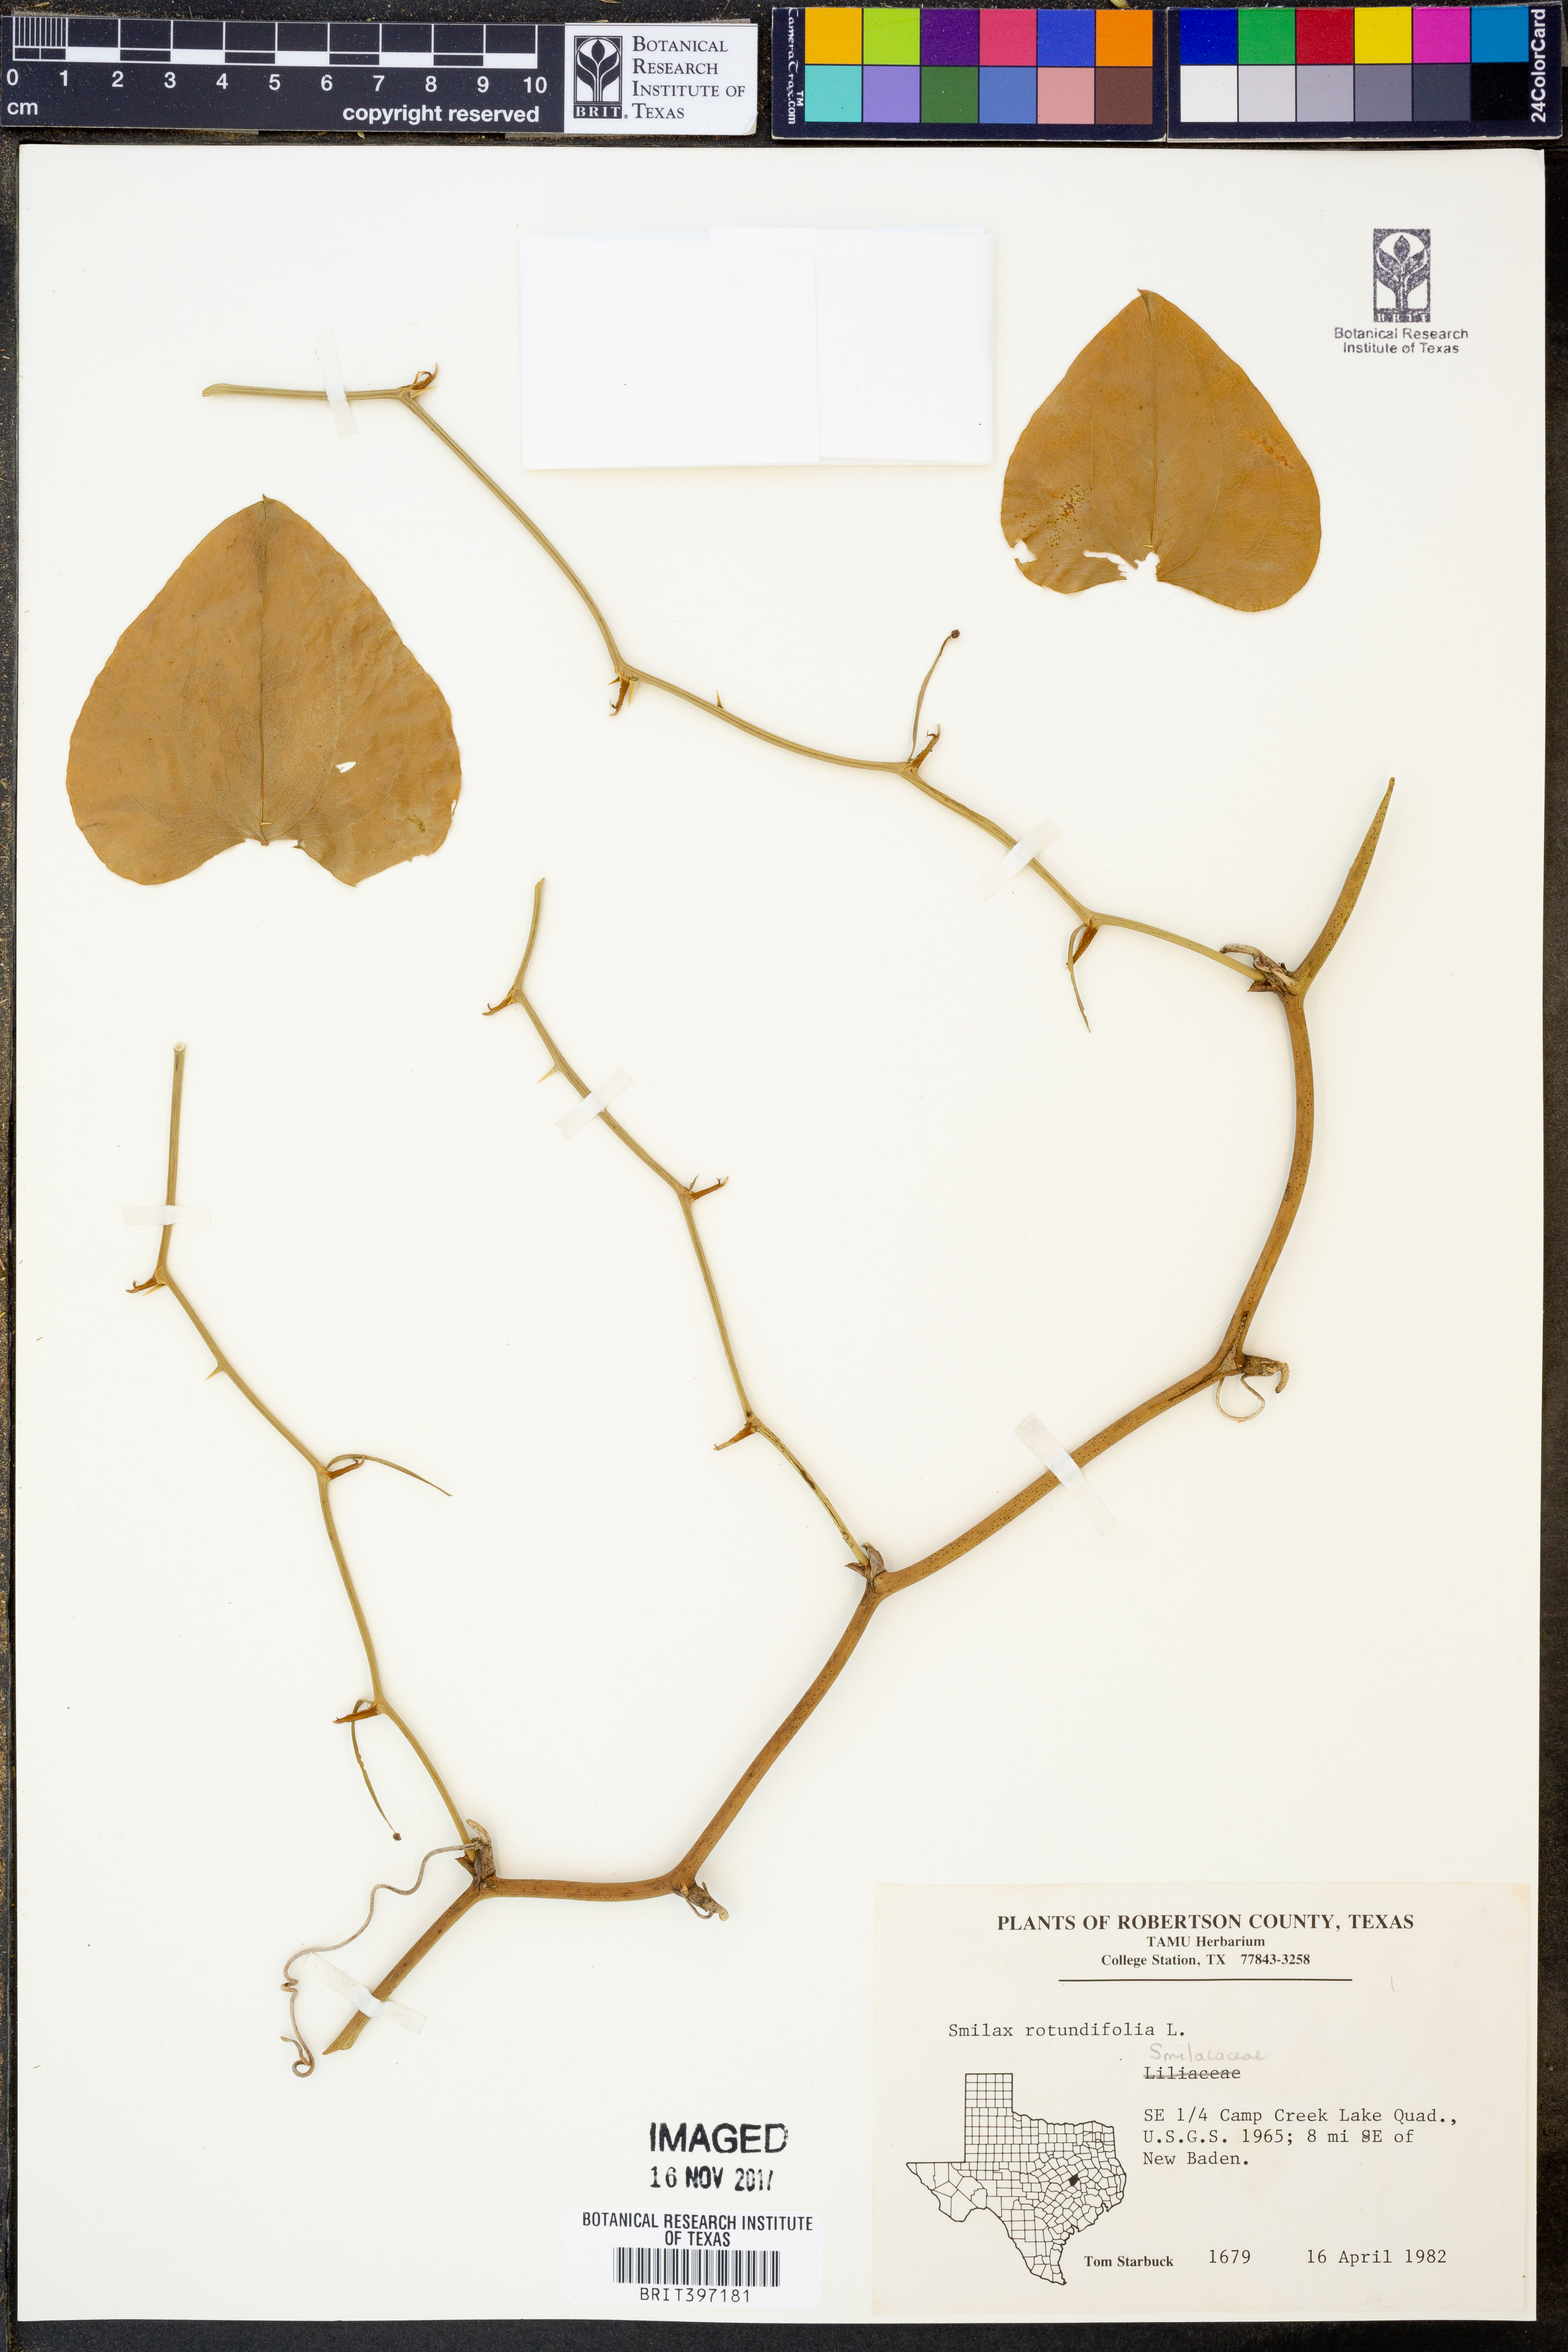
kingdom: Plantae
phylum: Tracheophyta
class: Liliopsida
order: Liliales
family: Smilacaceae
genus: Smilax
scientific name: Smilax rotundifolia
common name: Bullbriar
